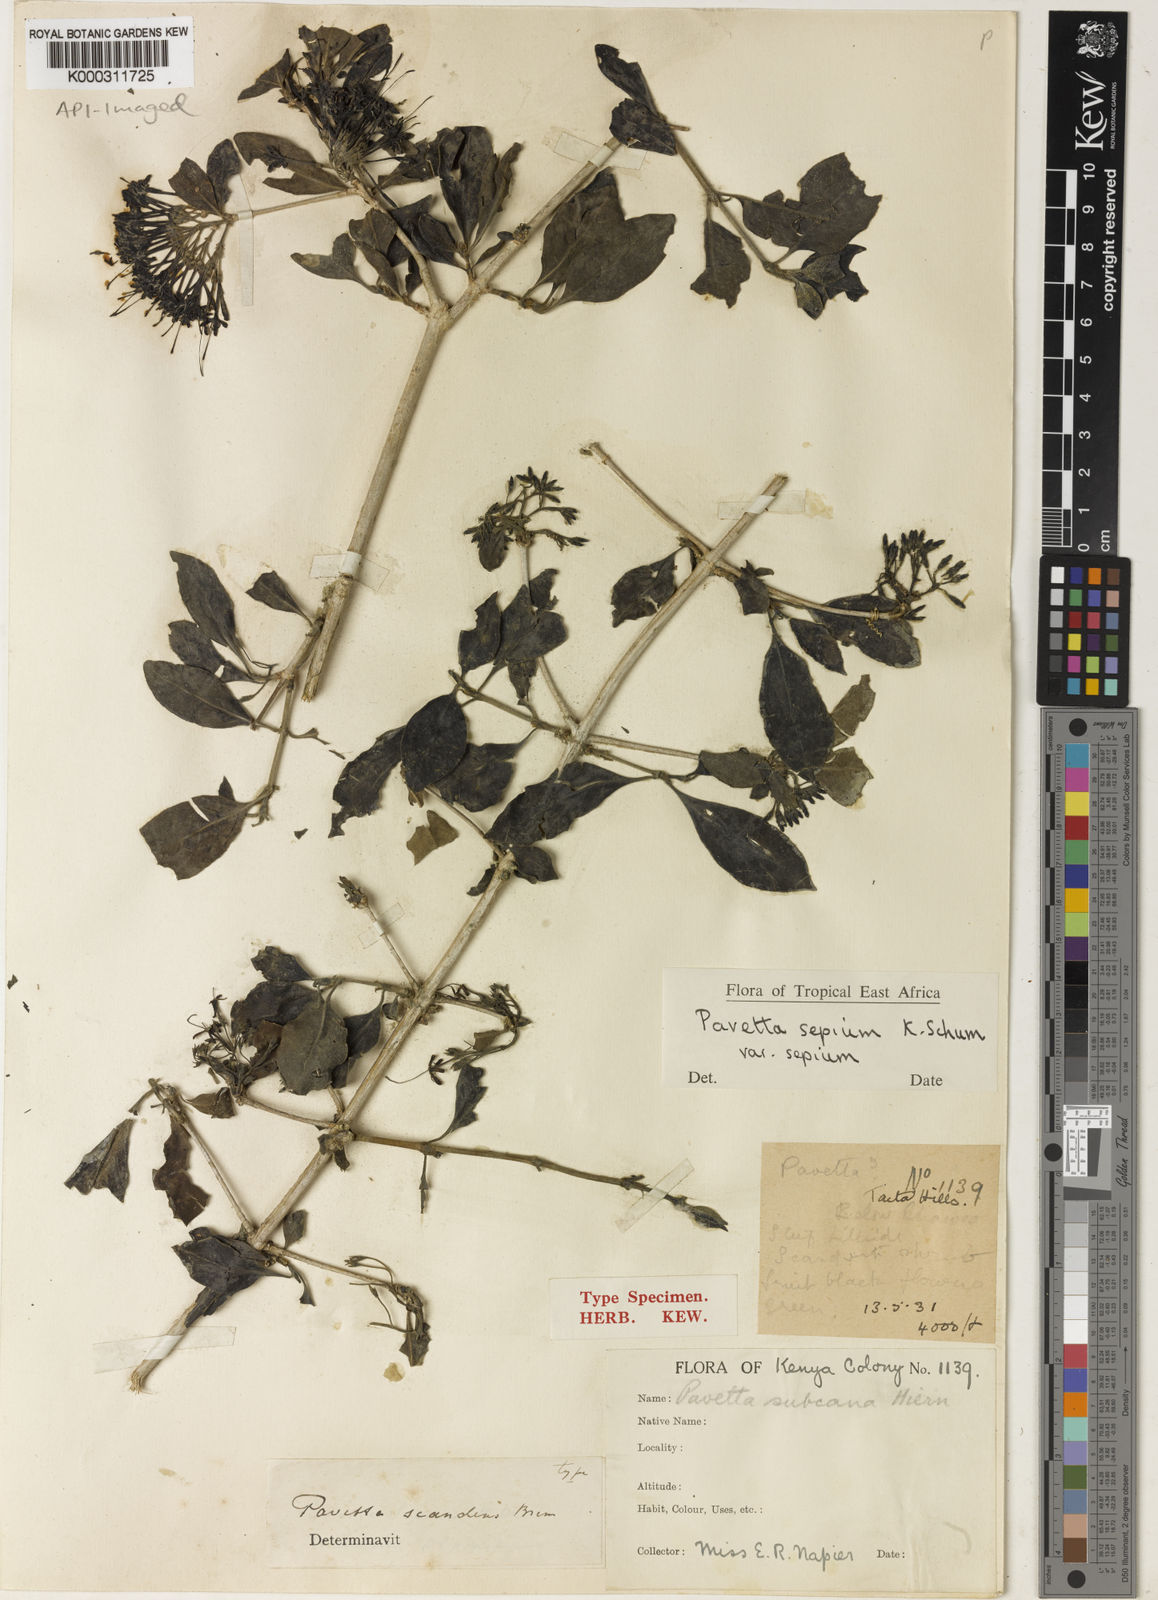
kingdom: Plantae
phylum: Tracheophyta
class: Magnoliopsida
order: Gentianales
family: Rubiaceae
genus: Pavetta
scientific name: Pavetta sepium
